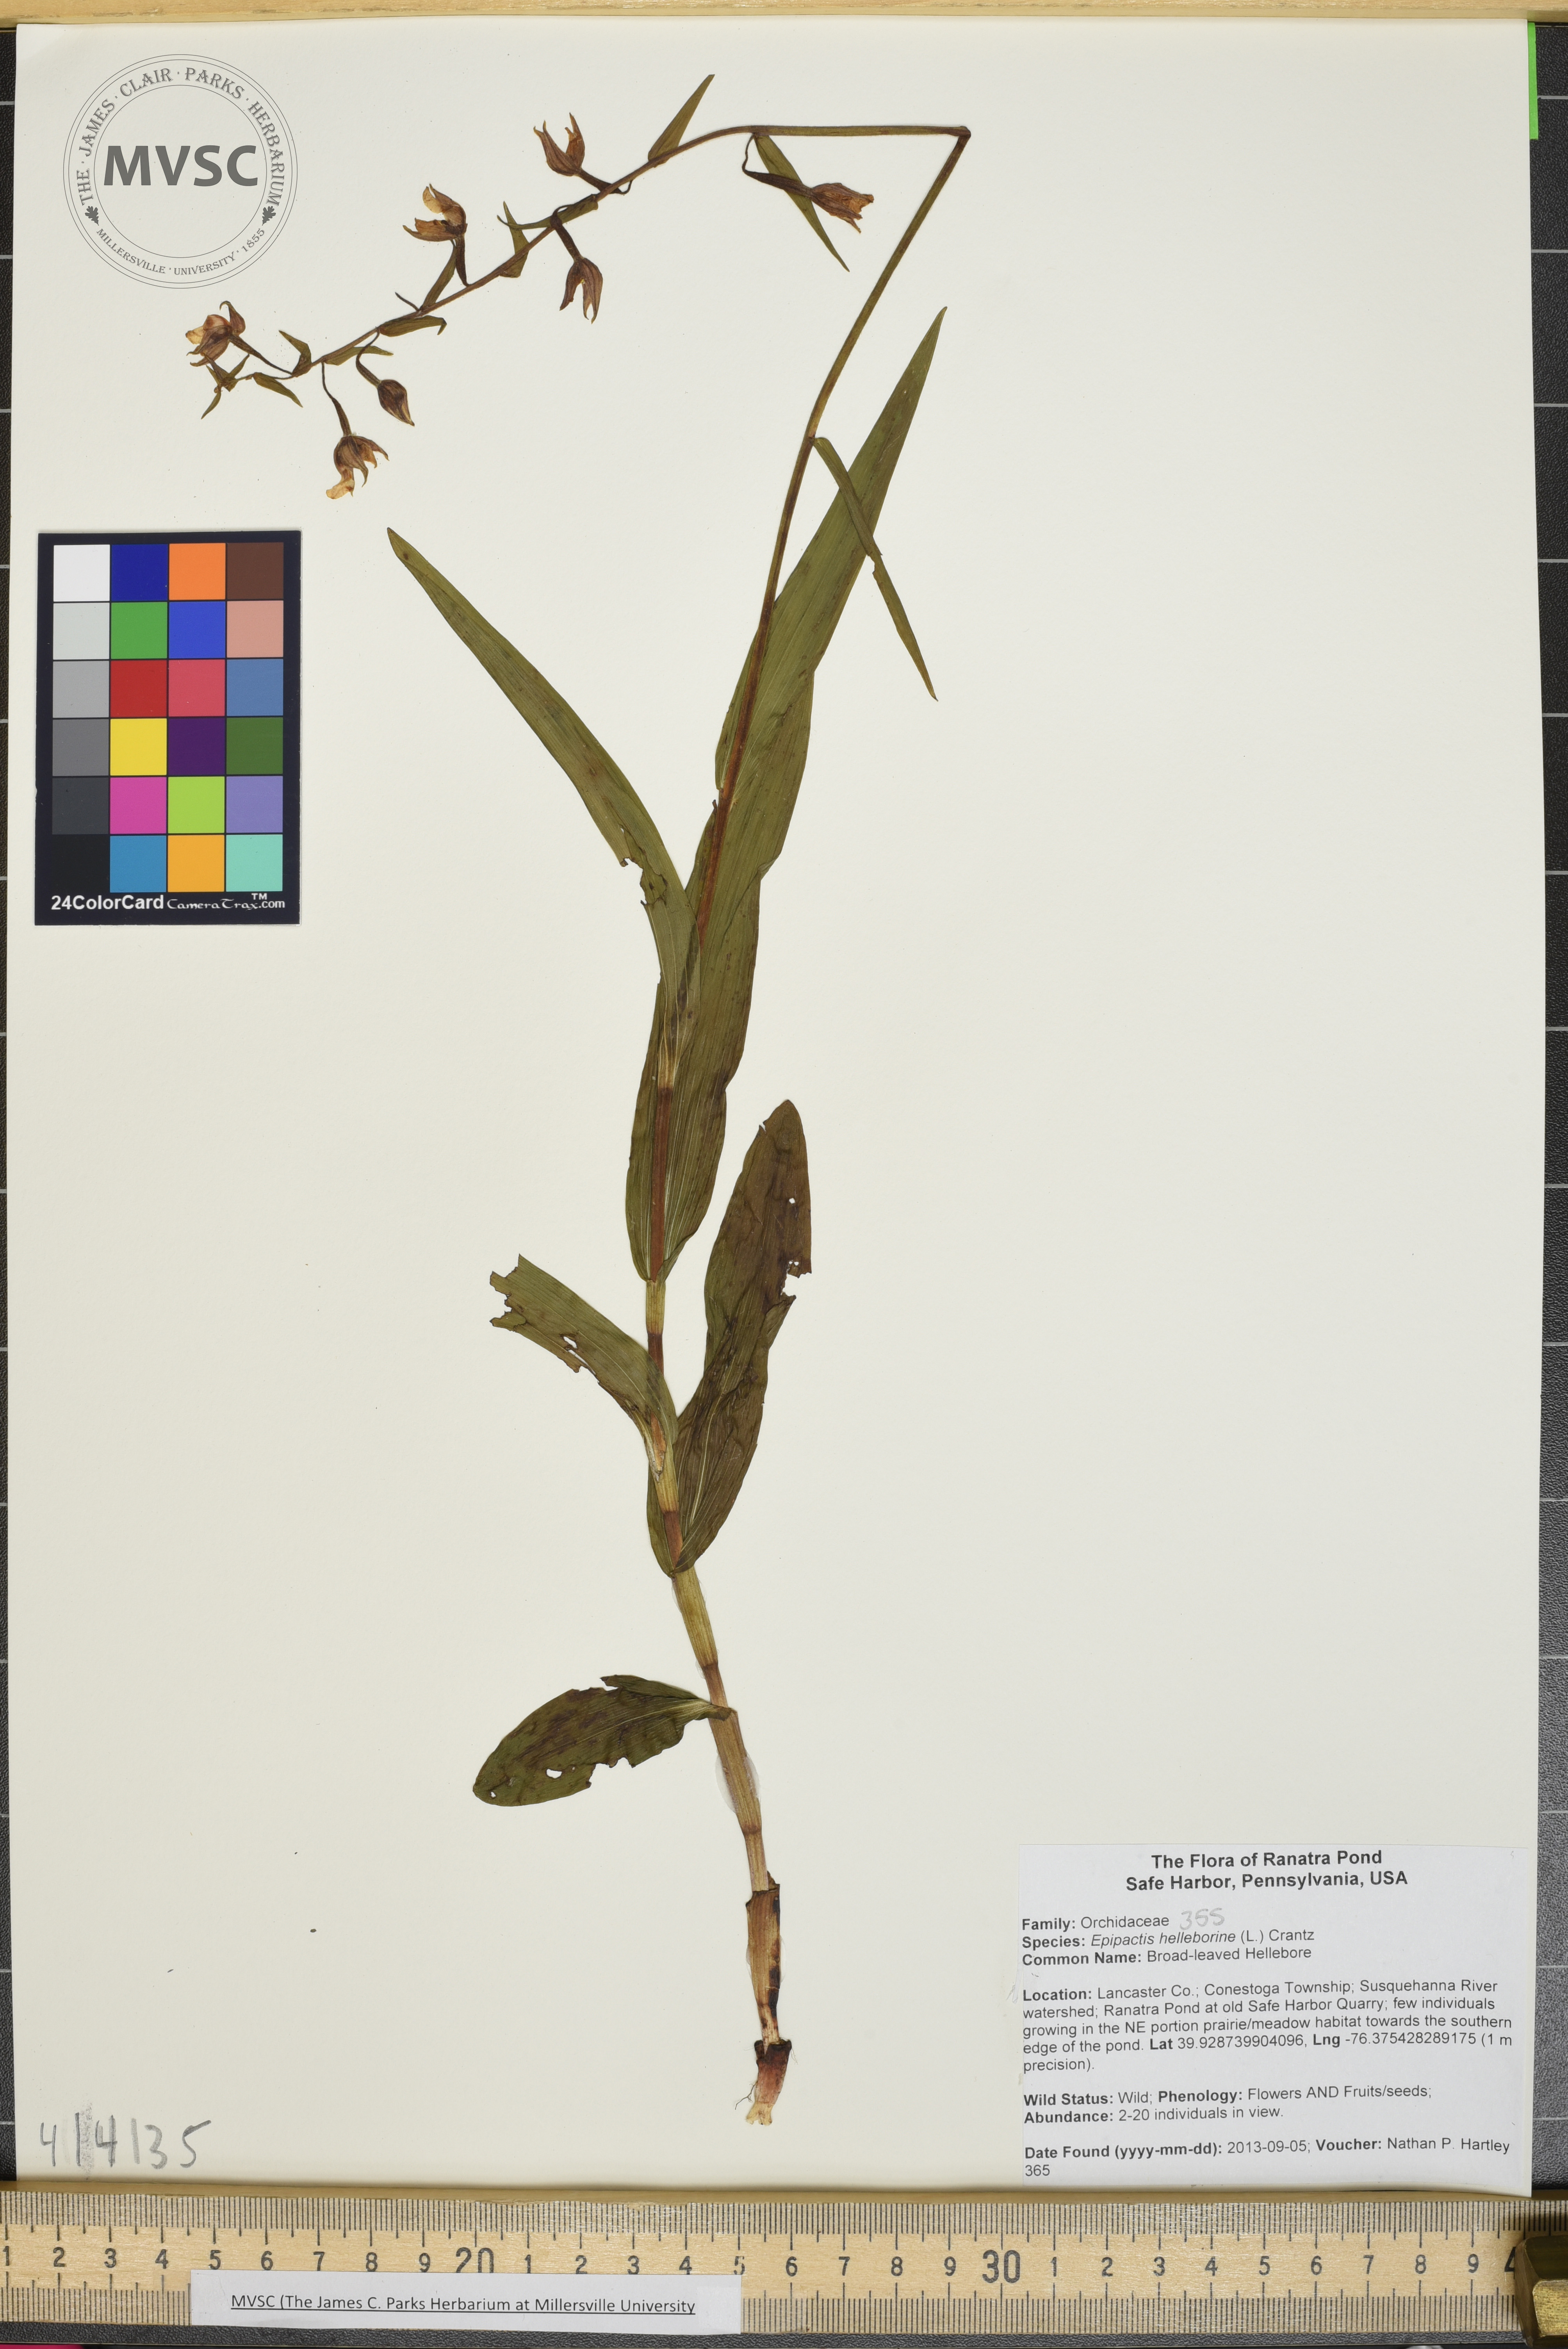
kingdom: Plantae
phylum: Tracheophyta
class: Liliopsida
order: Asparagales
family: Orchidaceae
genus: Epipactis
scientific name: Epipactis helleborine
